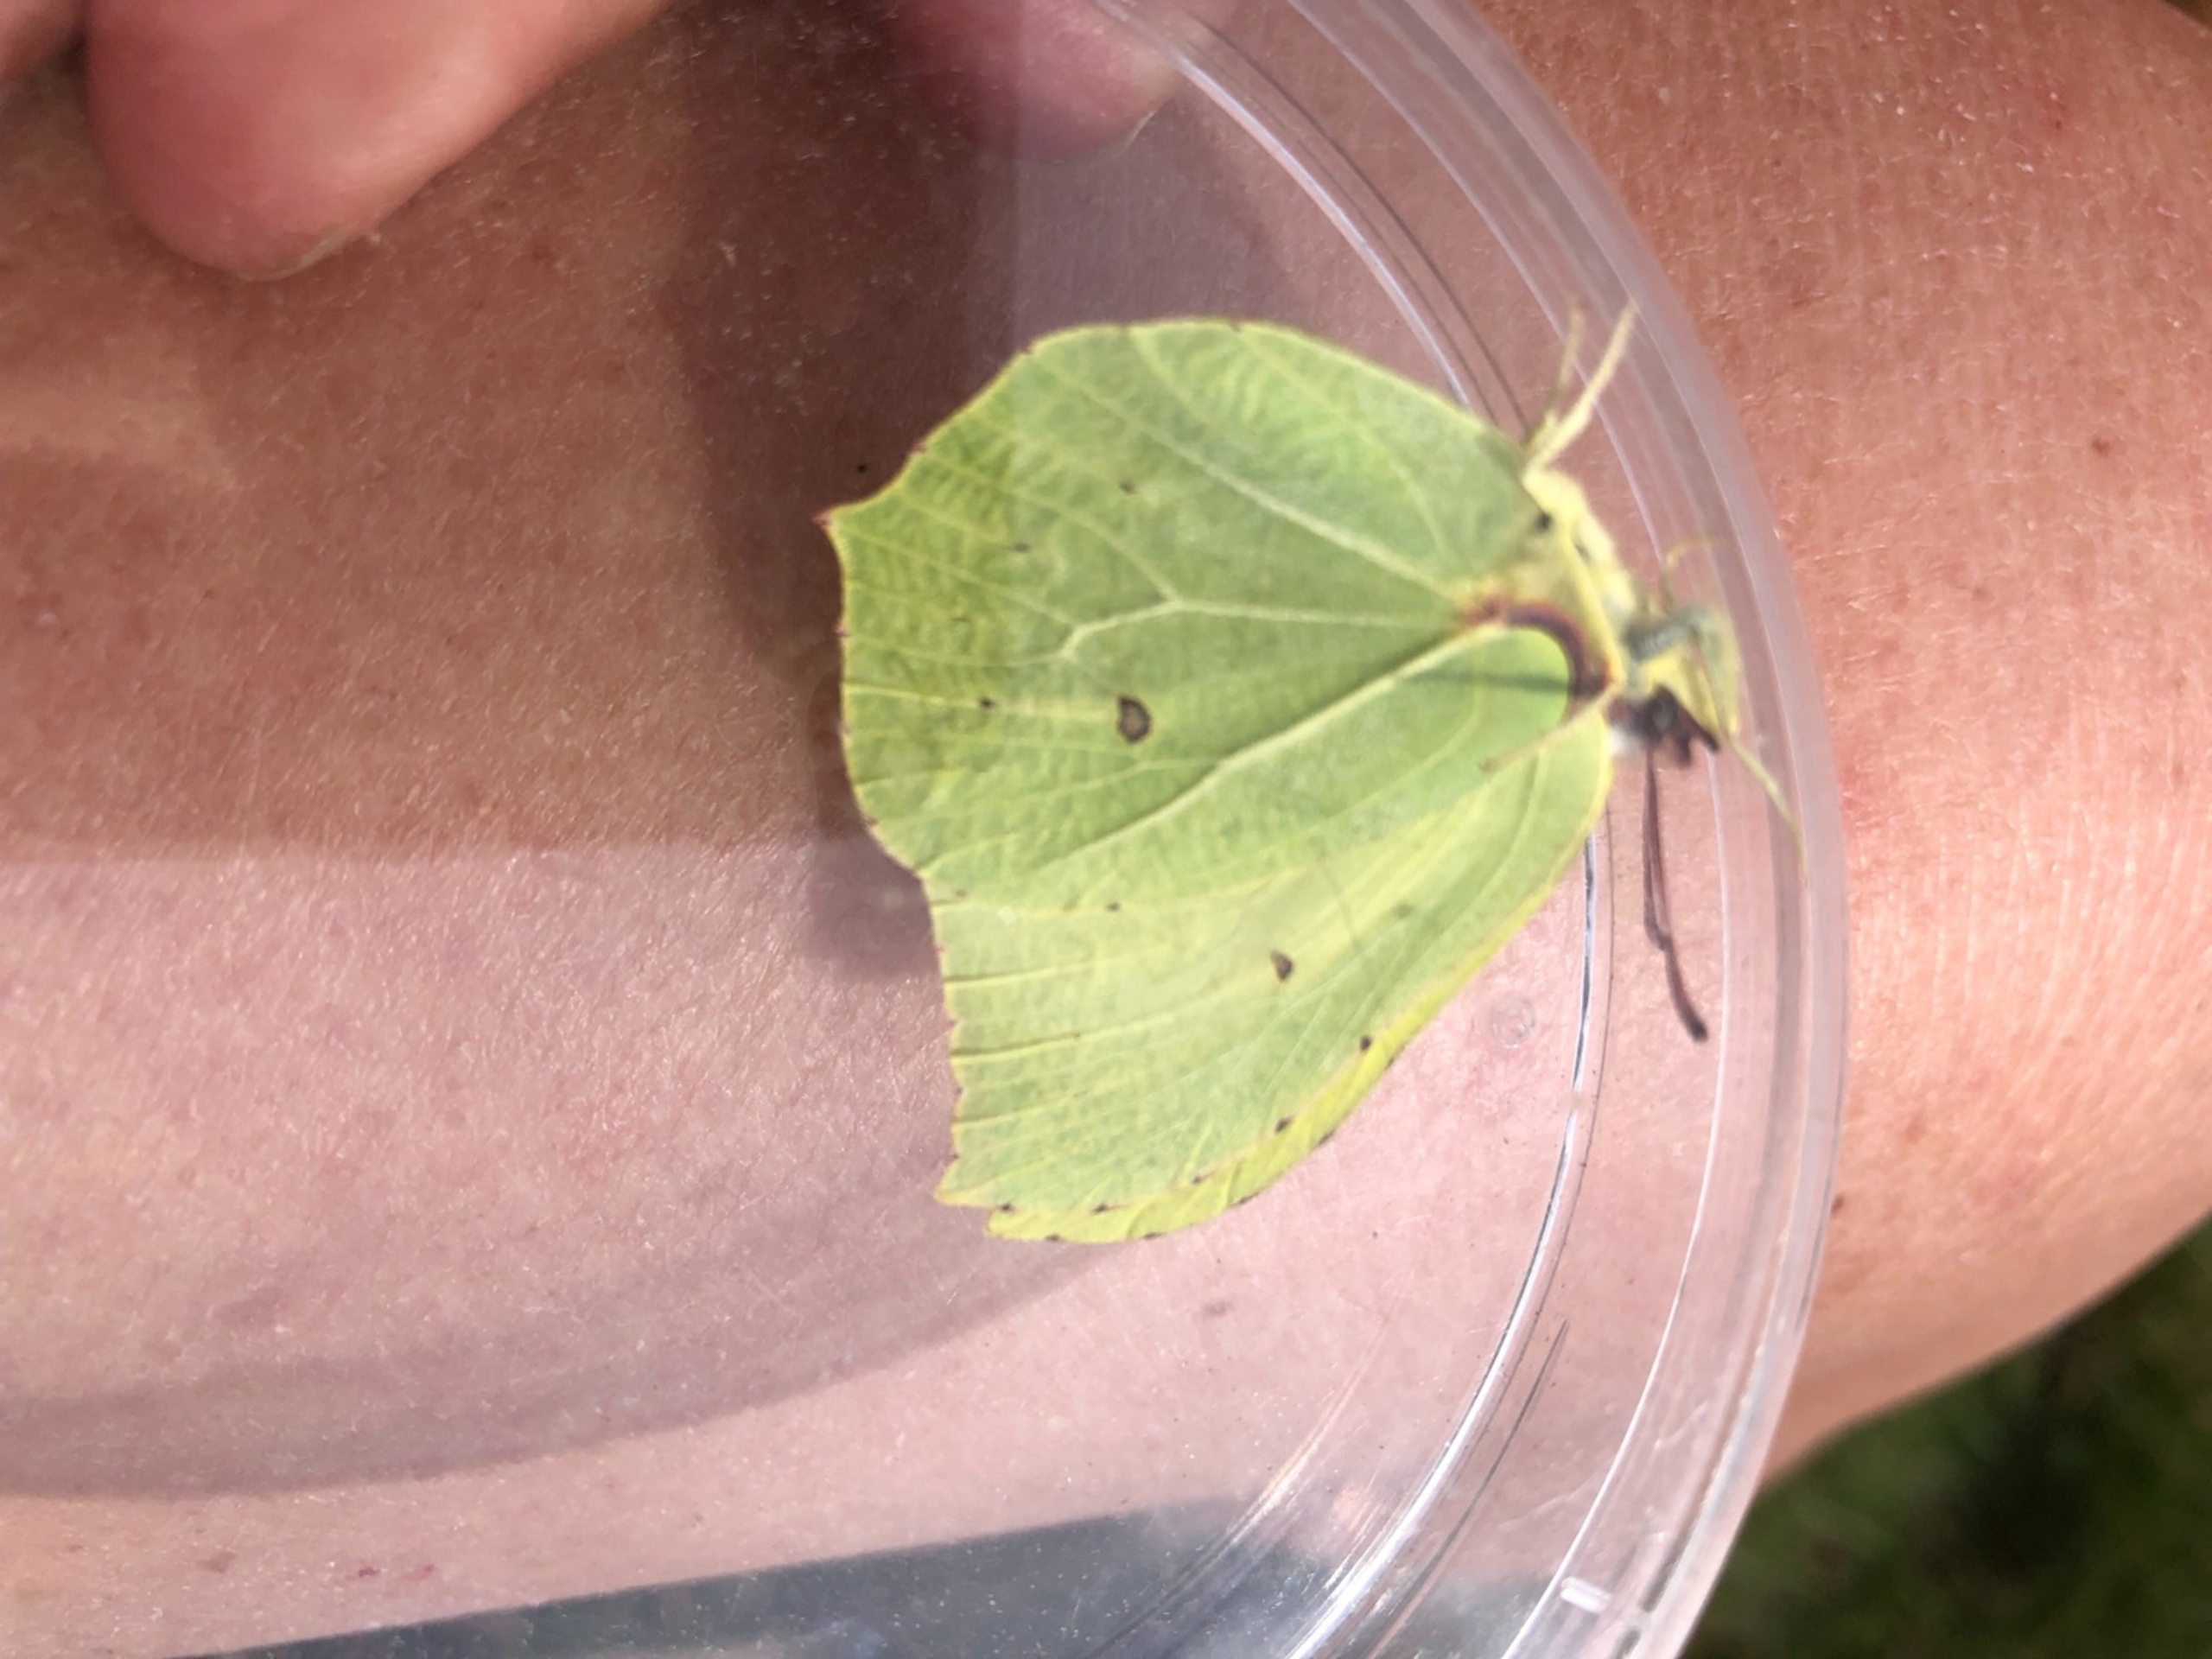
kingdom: Animalia
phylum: Arthropoda
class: Insecta
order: Lepidoptera
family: Pieridae
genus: Gonepteryx
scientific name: Gonepteryx rhamni
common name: Citronsommerfugl
